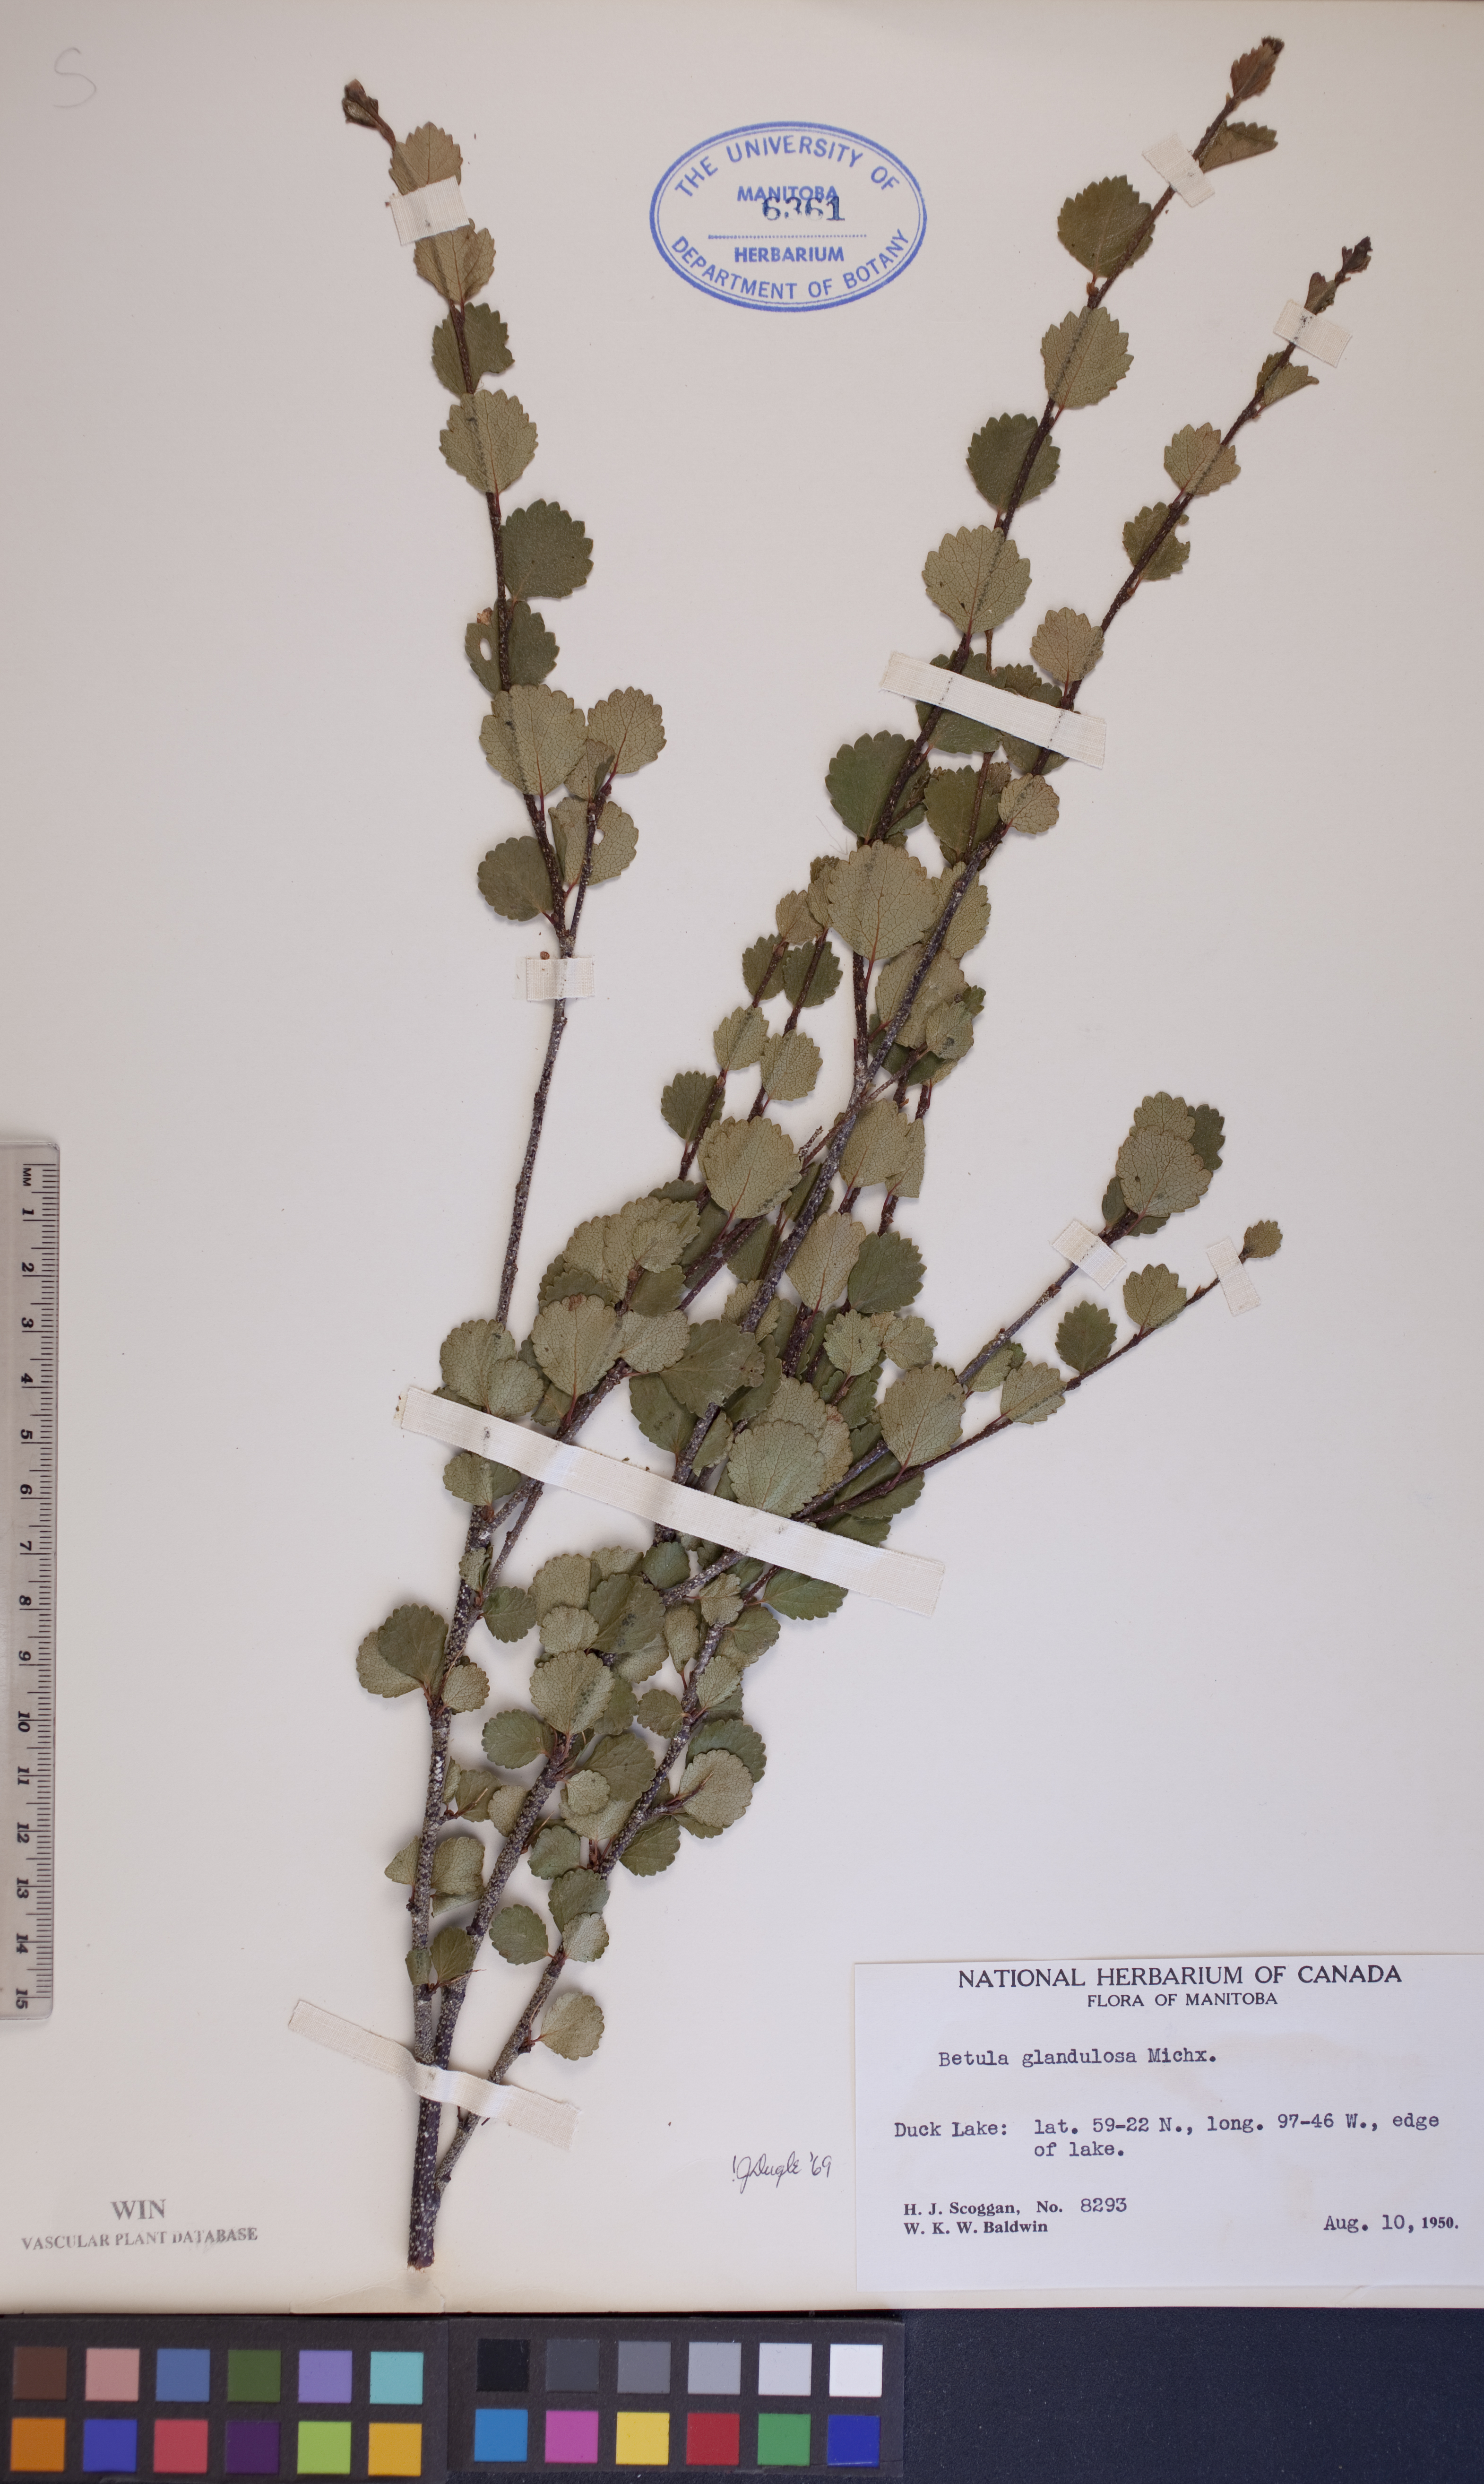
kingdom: Plantae
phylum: Tracheophyta
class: Magnoliopsida
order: Fagales
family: Betulaceae
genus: Betula
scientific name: Betula glandulosa
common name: Dwarf birch
